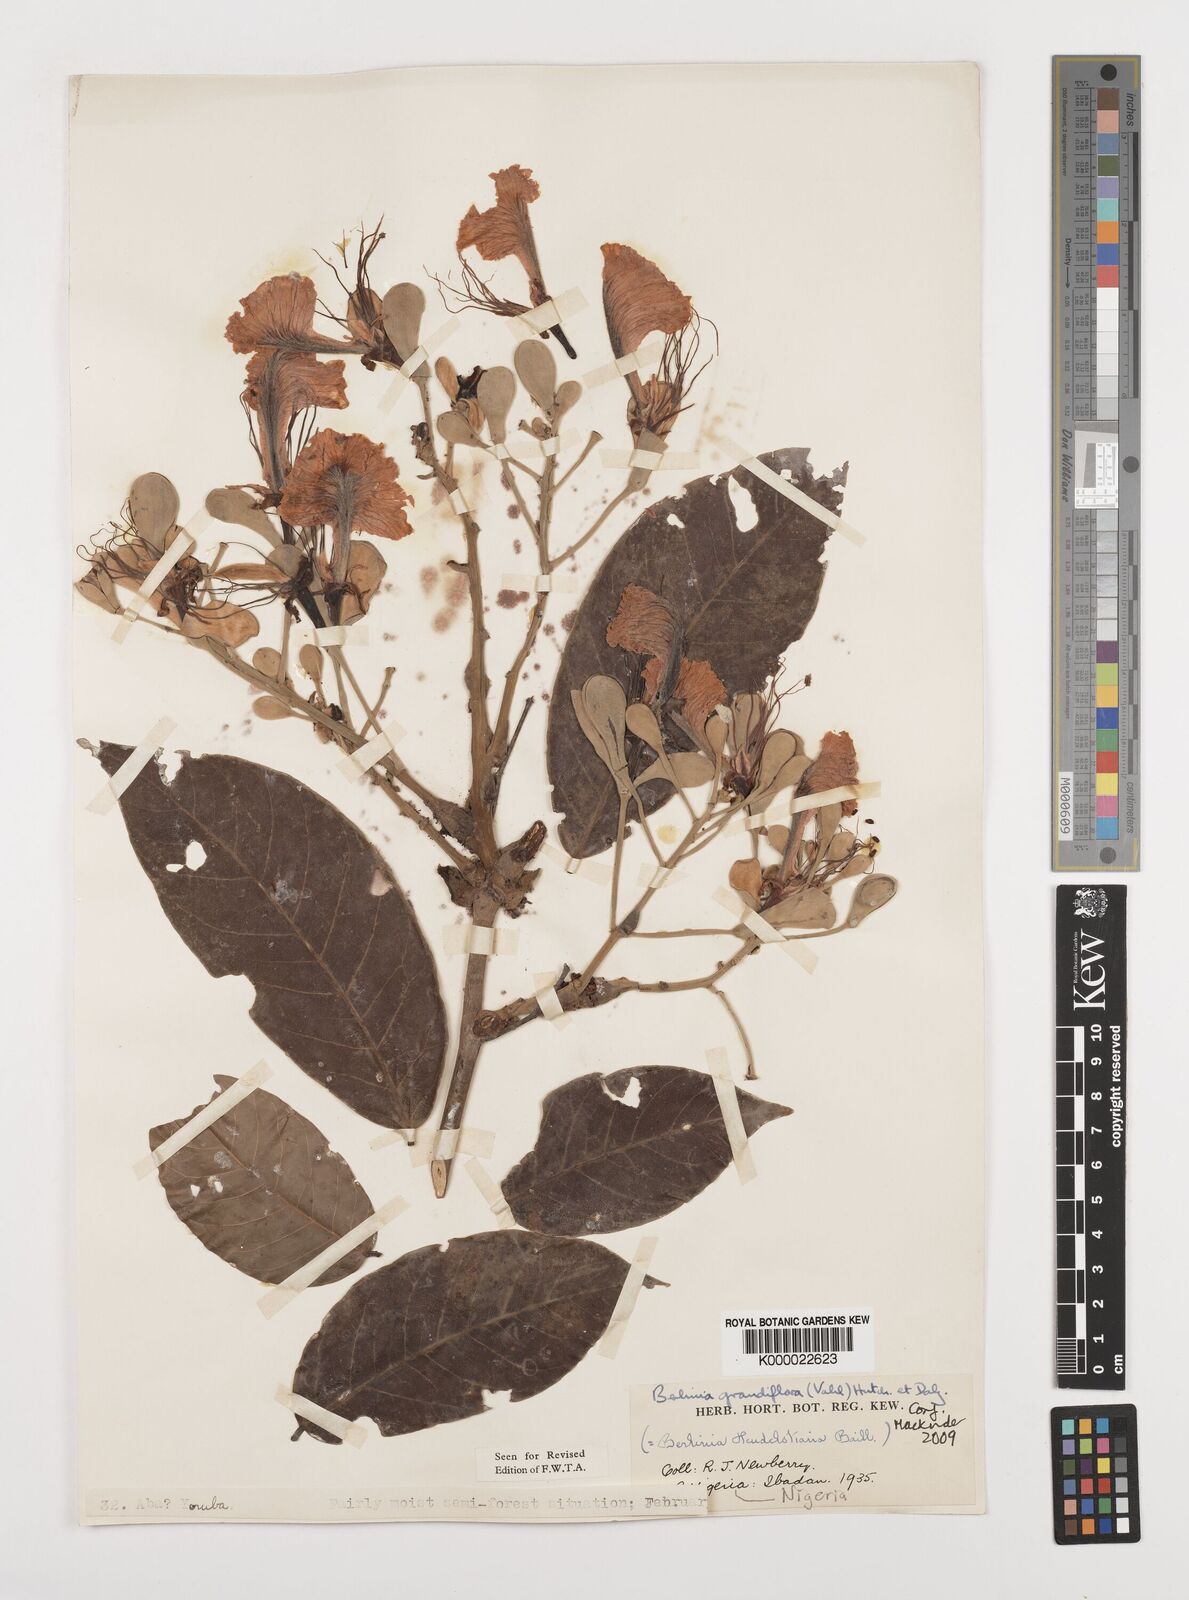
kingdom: Plantae
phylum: Tracheophyta
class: Magnoliopsida
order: Fabales
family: Fabaceae
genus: Berlinia
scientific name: Berlinia grandiflora
